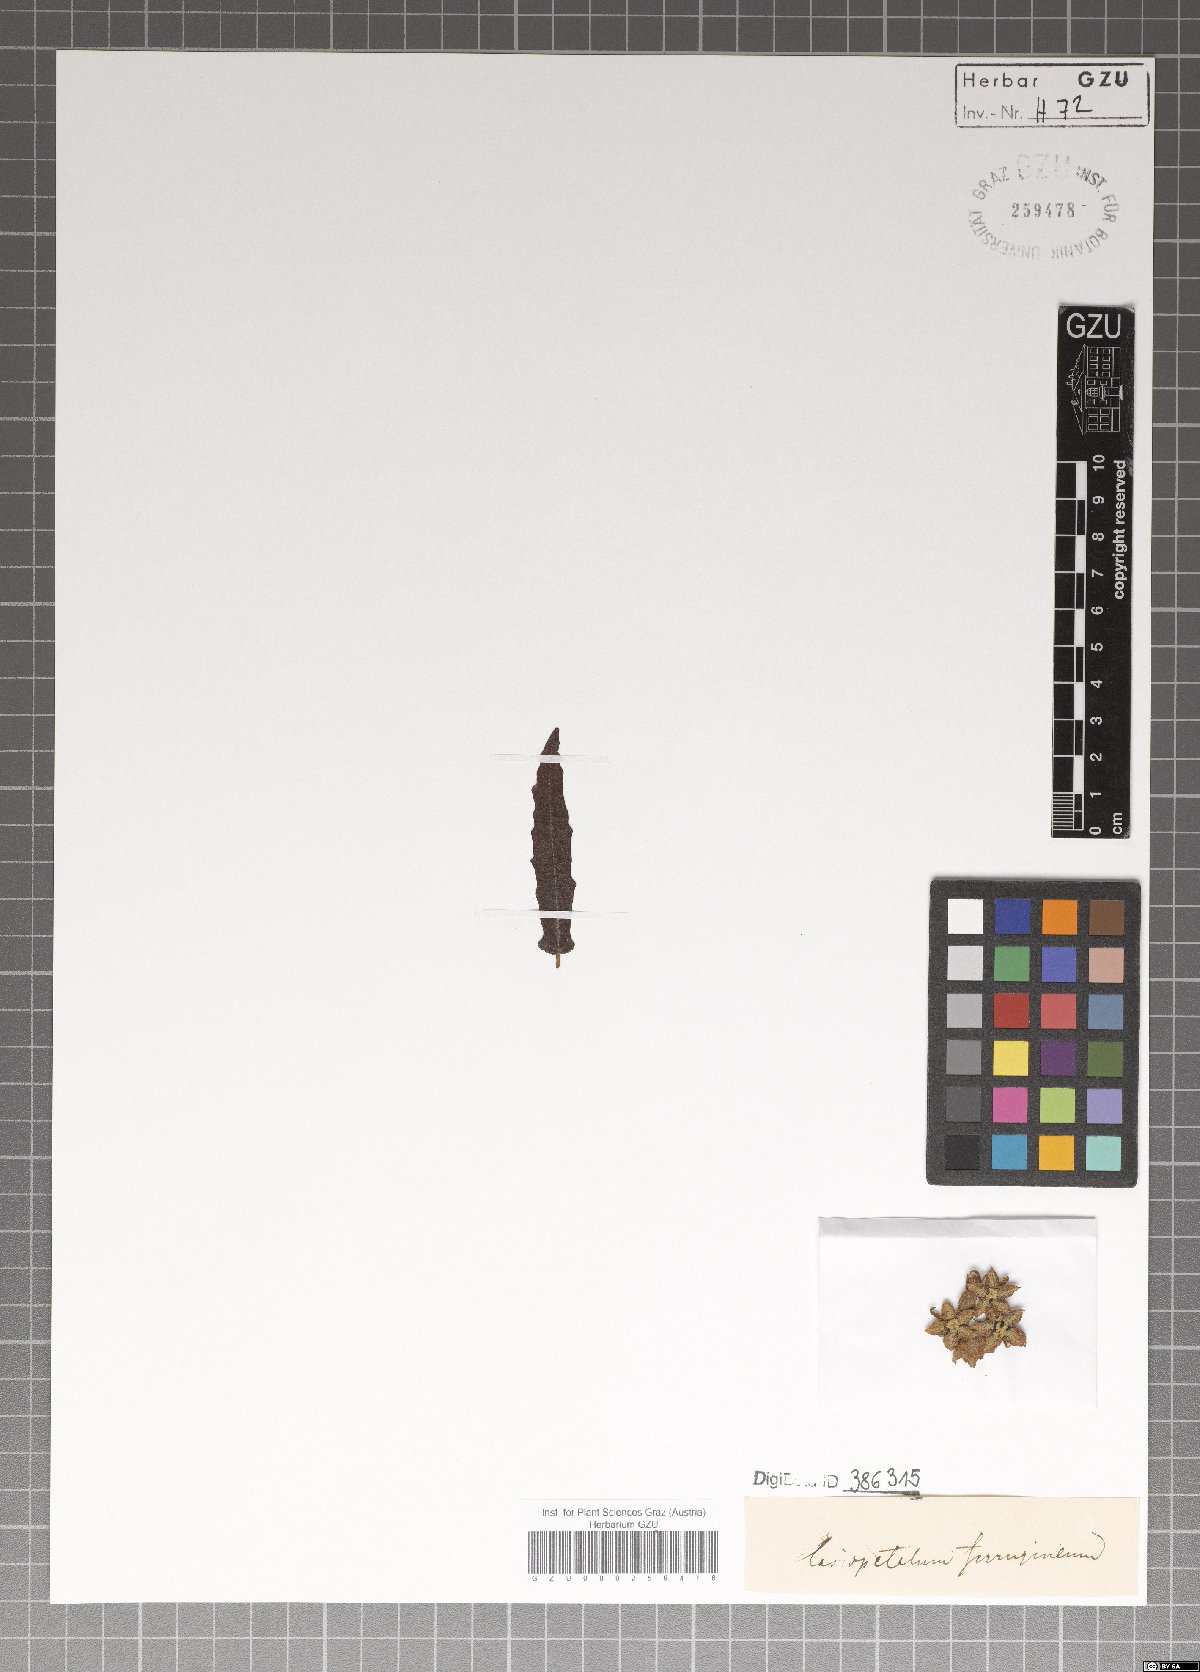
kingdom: Plantae
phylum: Tracheophyta
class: Magnoliopsida
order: Malvales
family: Malvaceae
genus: Lasiopetalum
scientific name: Lasiopetalum ferrugineum
